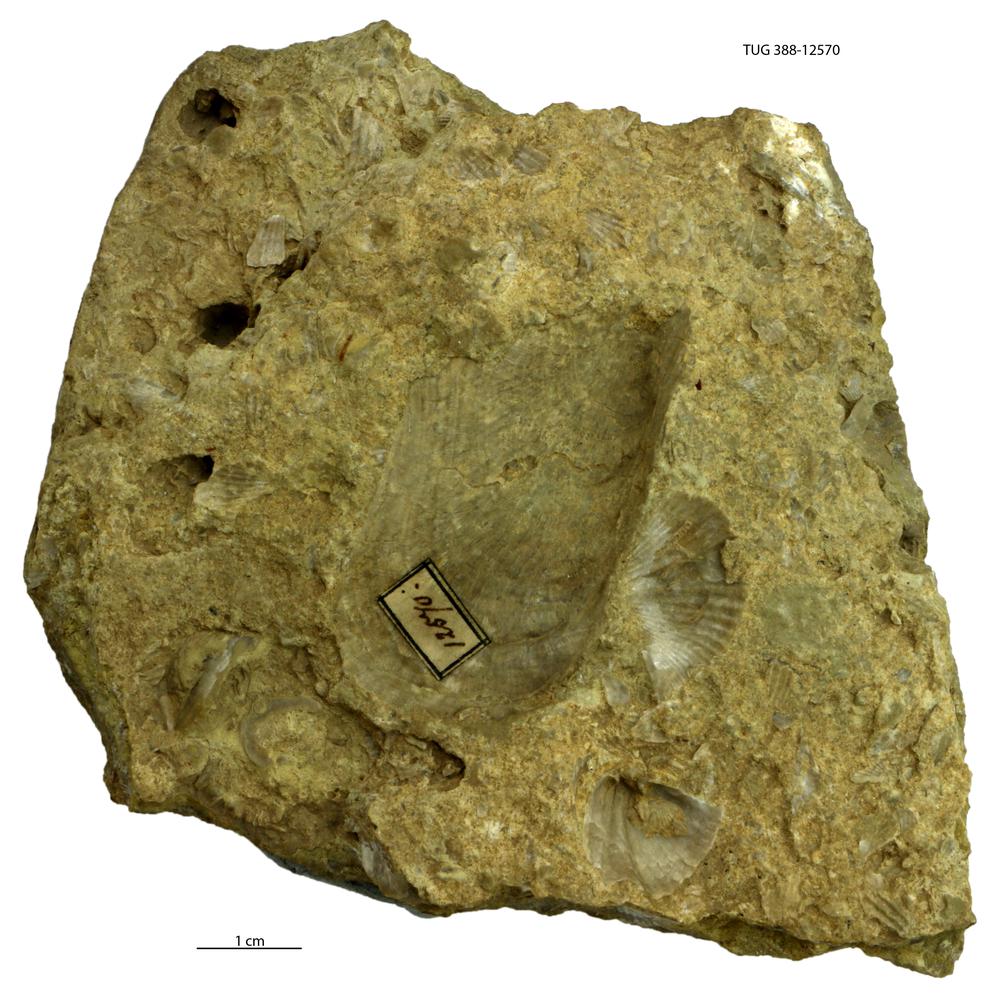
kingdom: Animalia
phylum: Mollusca
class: Bivalvia
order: Ostreida
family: Pteriidae
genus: Pteria
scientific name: Pteria
